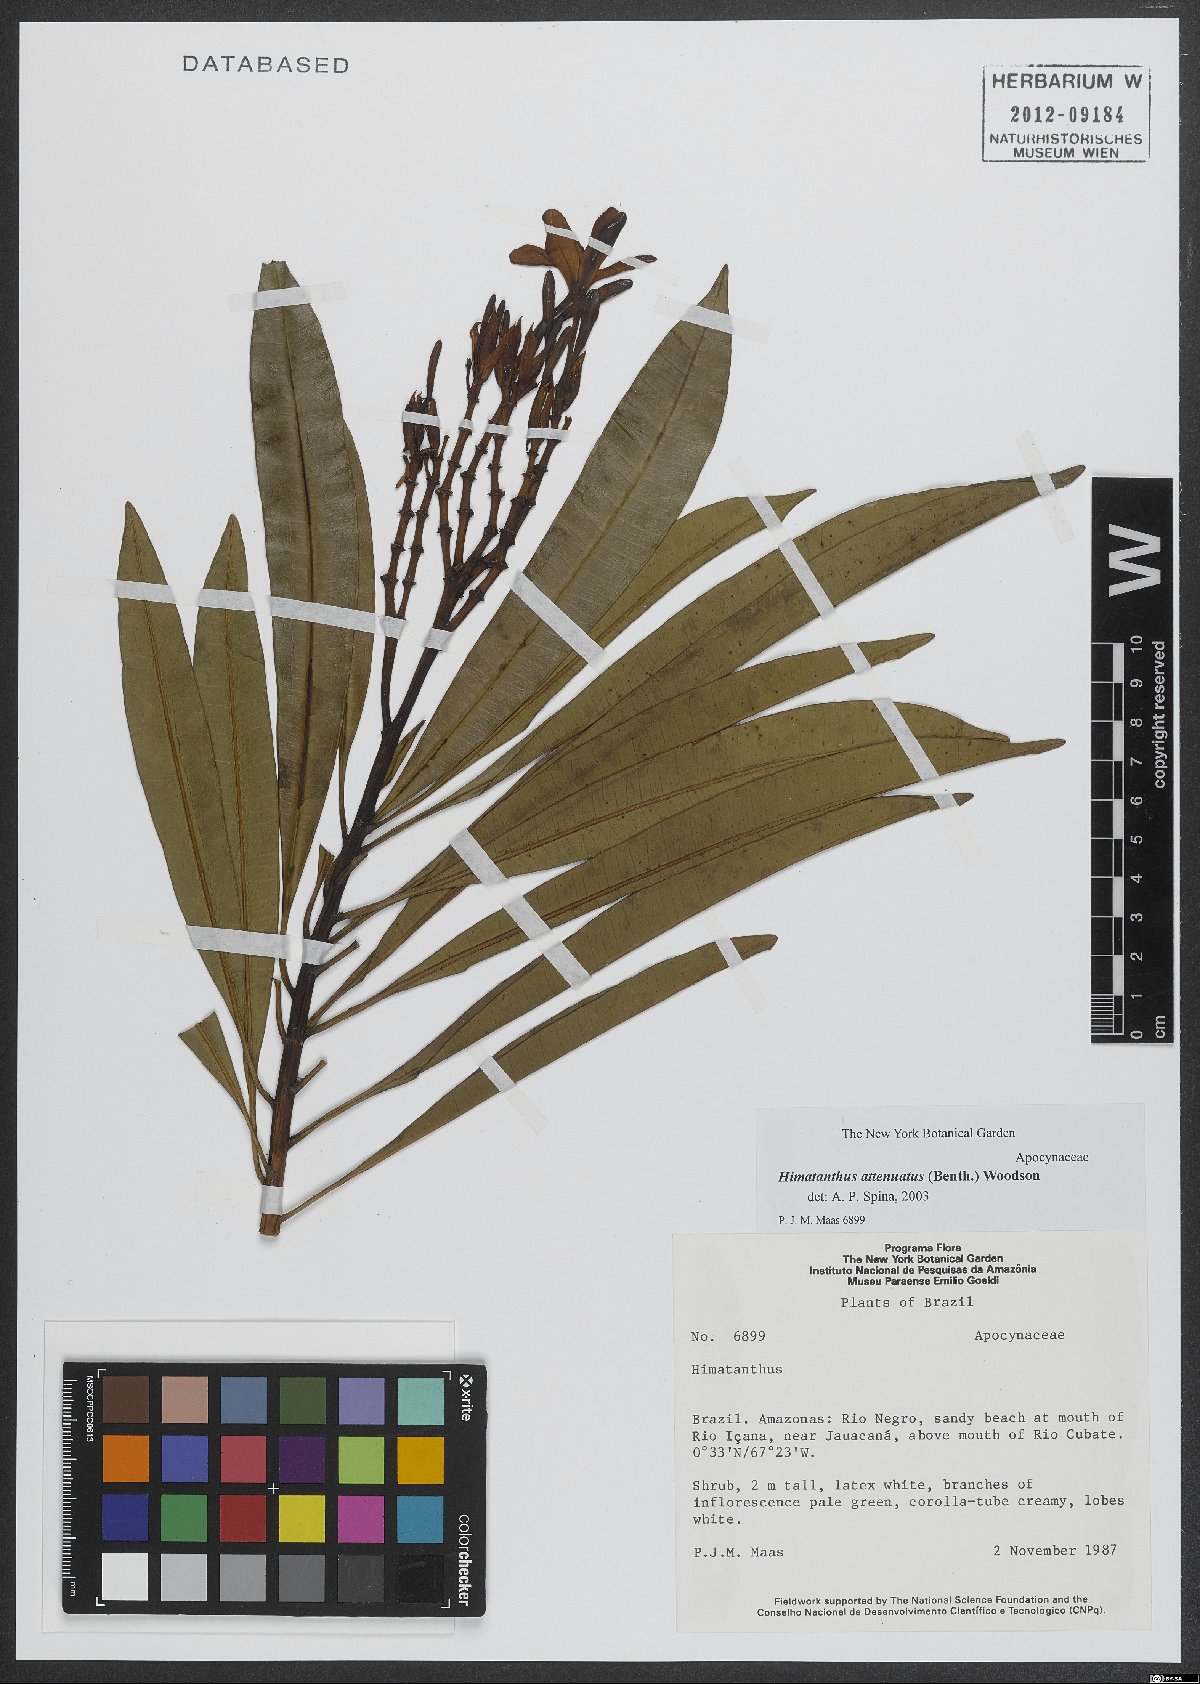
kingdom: Plantae
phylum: Tracheophyta
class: Magnoliopsida
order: Gentianales
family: Apocynaceae
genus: Himatanthus
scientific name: Himatanthus attenuatus
